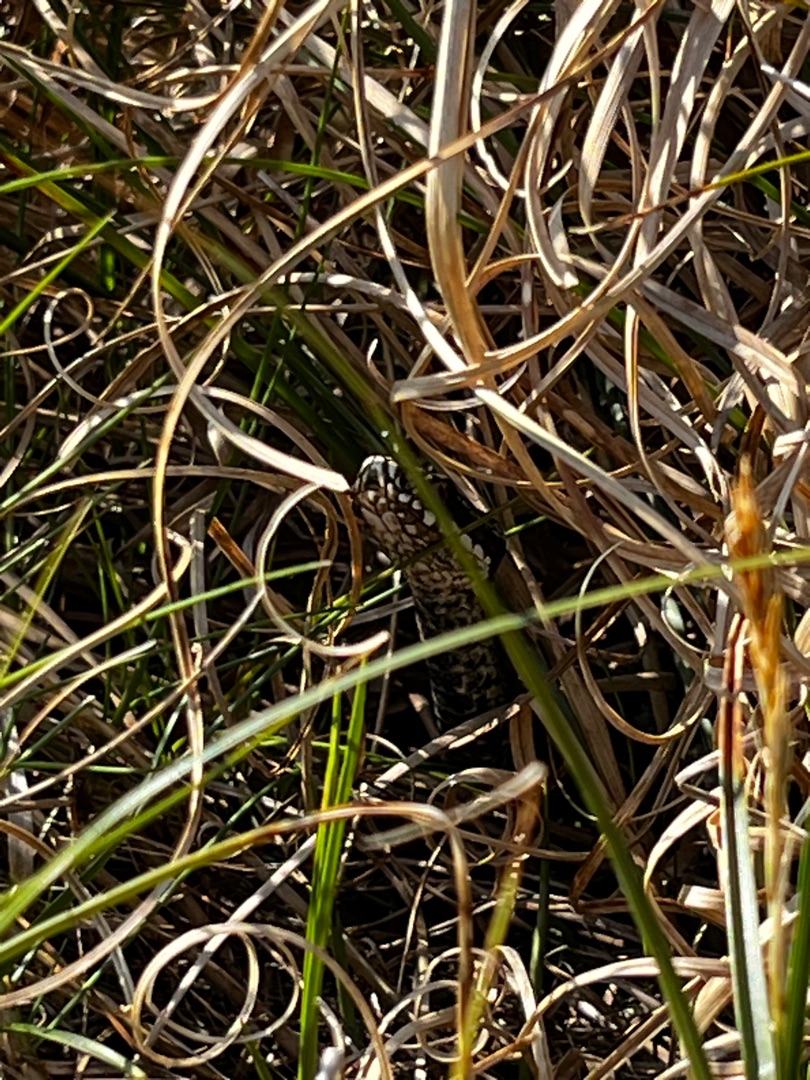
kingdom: Animalia
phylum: Chordata
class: Squamata
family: Viperidae
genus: Vipera
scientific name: Vipera berus
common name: Hugorm
